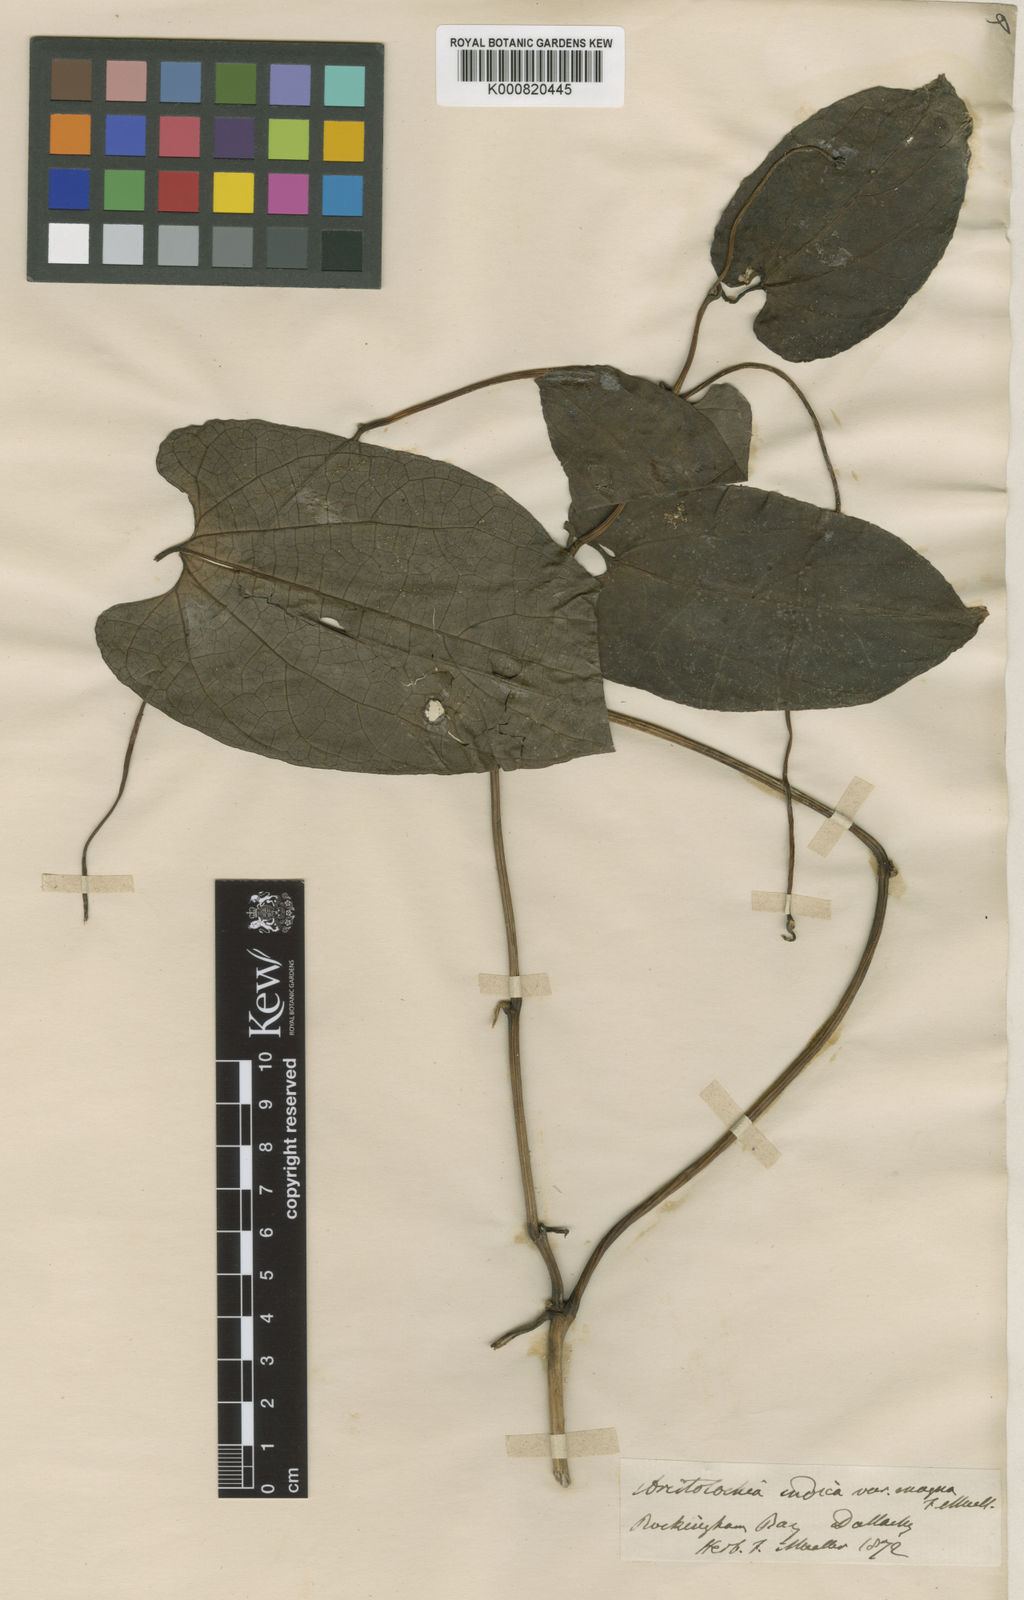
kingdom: Plantae
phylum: Tracheophyta
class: Magnoliopsida
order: Piperales
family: Aristolochiaceae
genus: Aristolochia
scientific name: Aristolochia indica
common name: Indian birthwort
